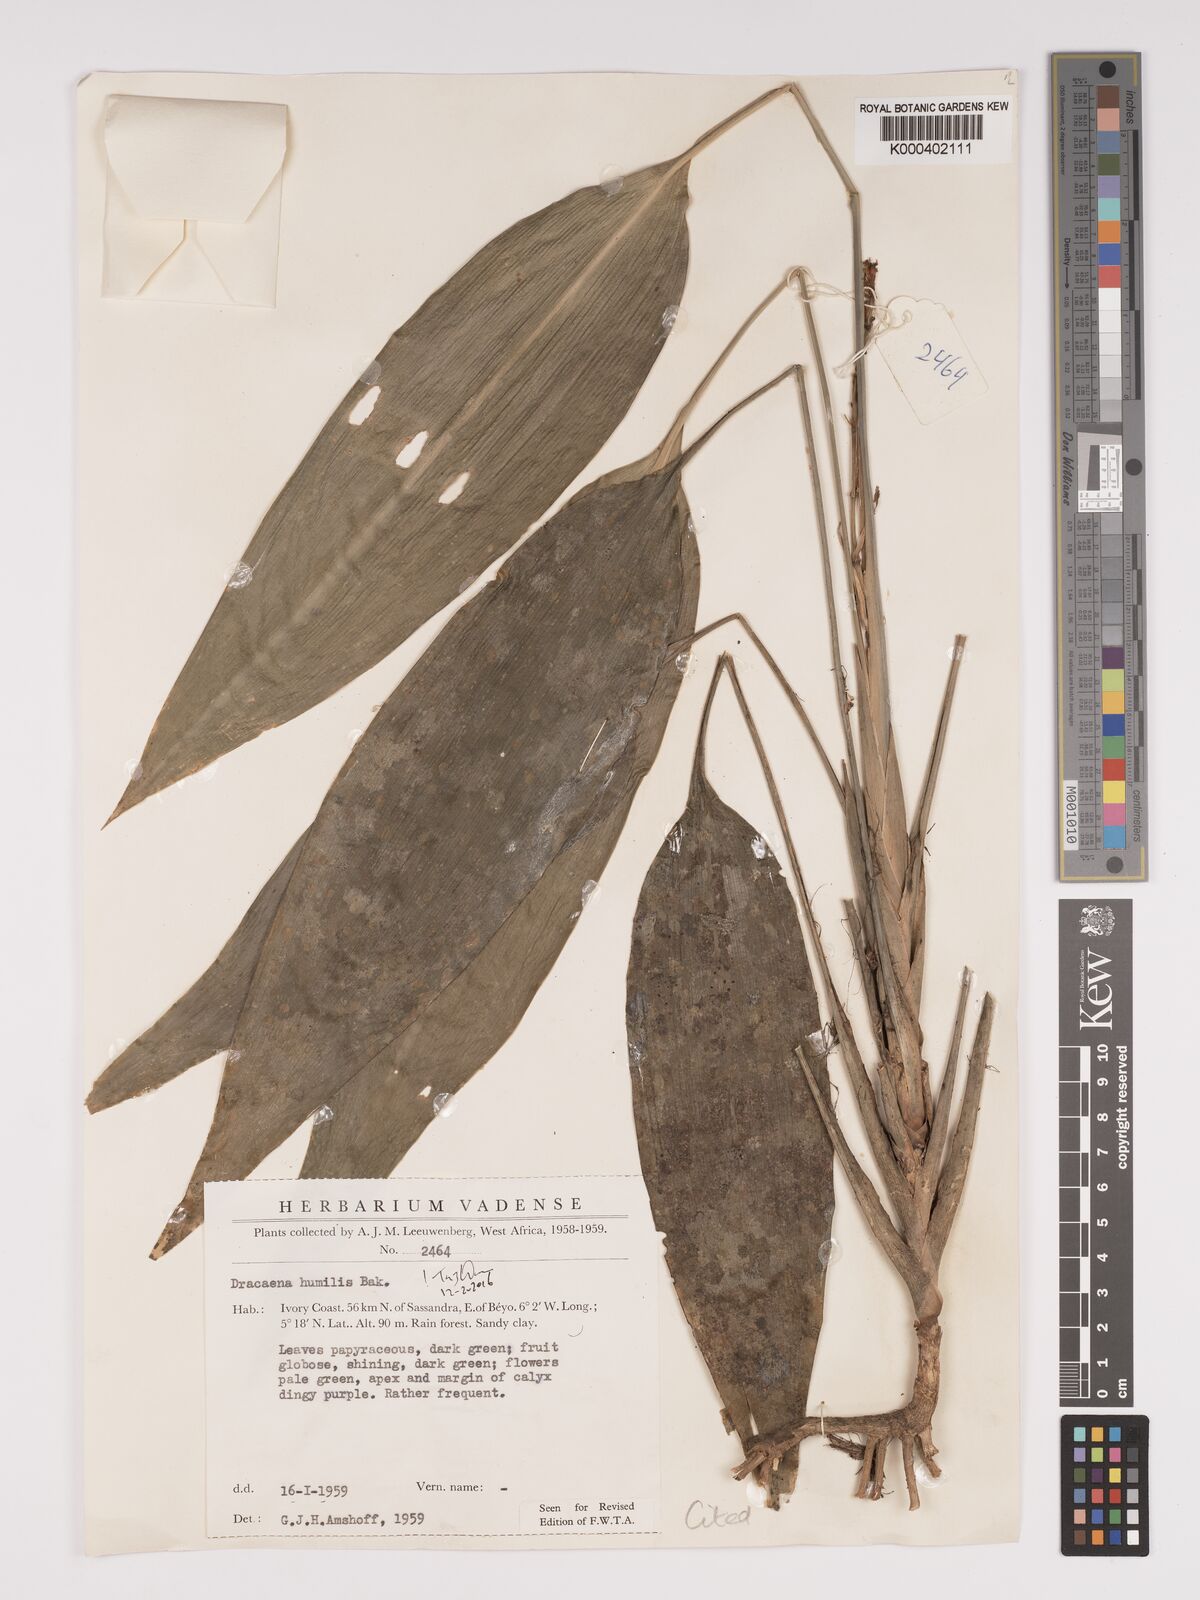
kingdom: Plantae
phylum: Tracheophyta
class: Liliopsida
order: Asparagales
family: Asparagaceae
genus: Dracaena
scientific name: Dracaena aubryana
